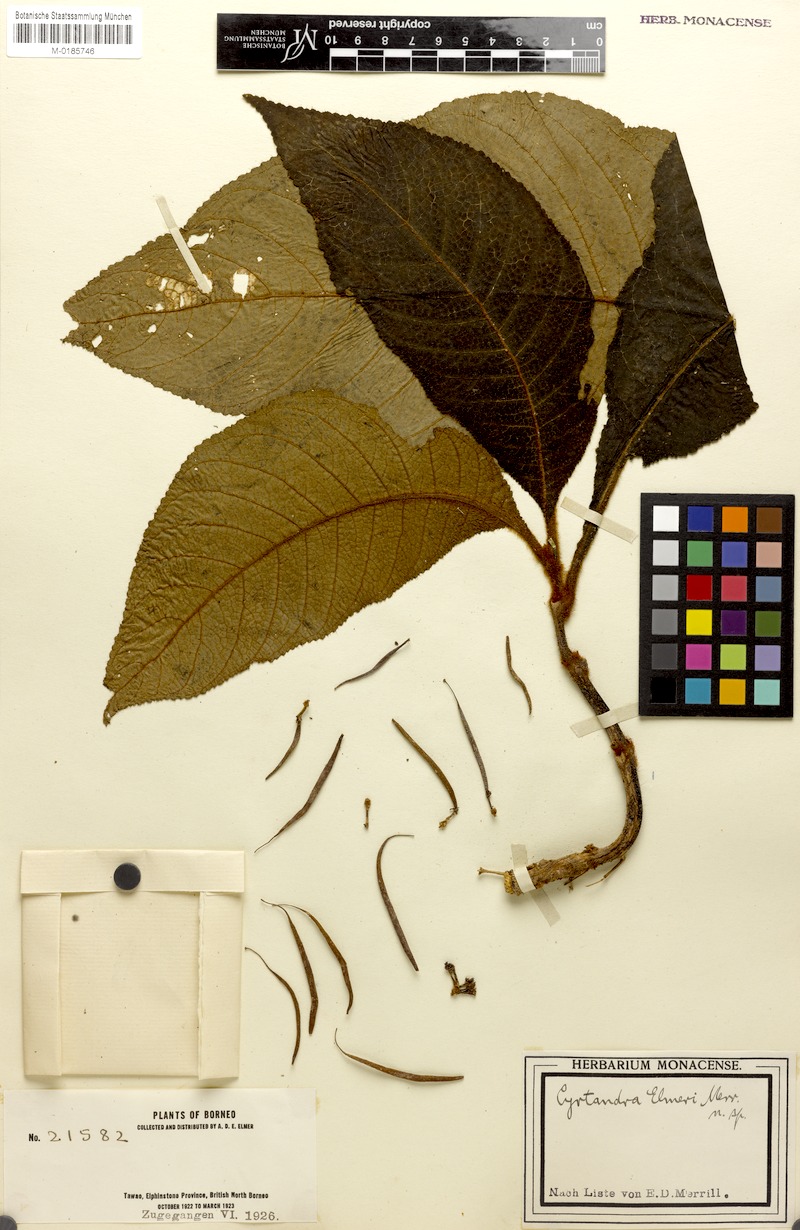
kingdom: Plantae
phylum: Tracheophyta
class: Magnoliopsida
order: Lamiales
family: Gesneriaceae
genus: Cyrtandra
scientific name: Cyrtandra elmeri
